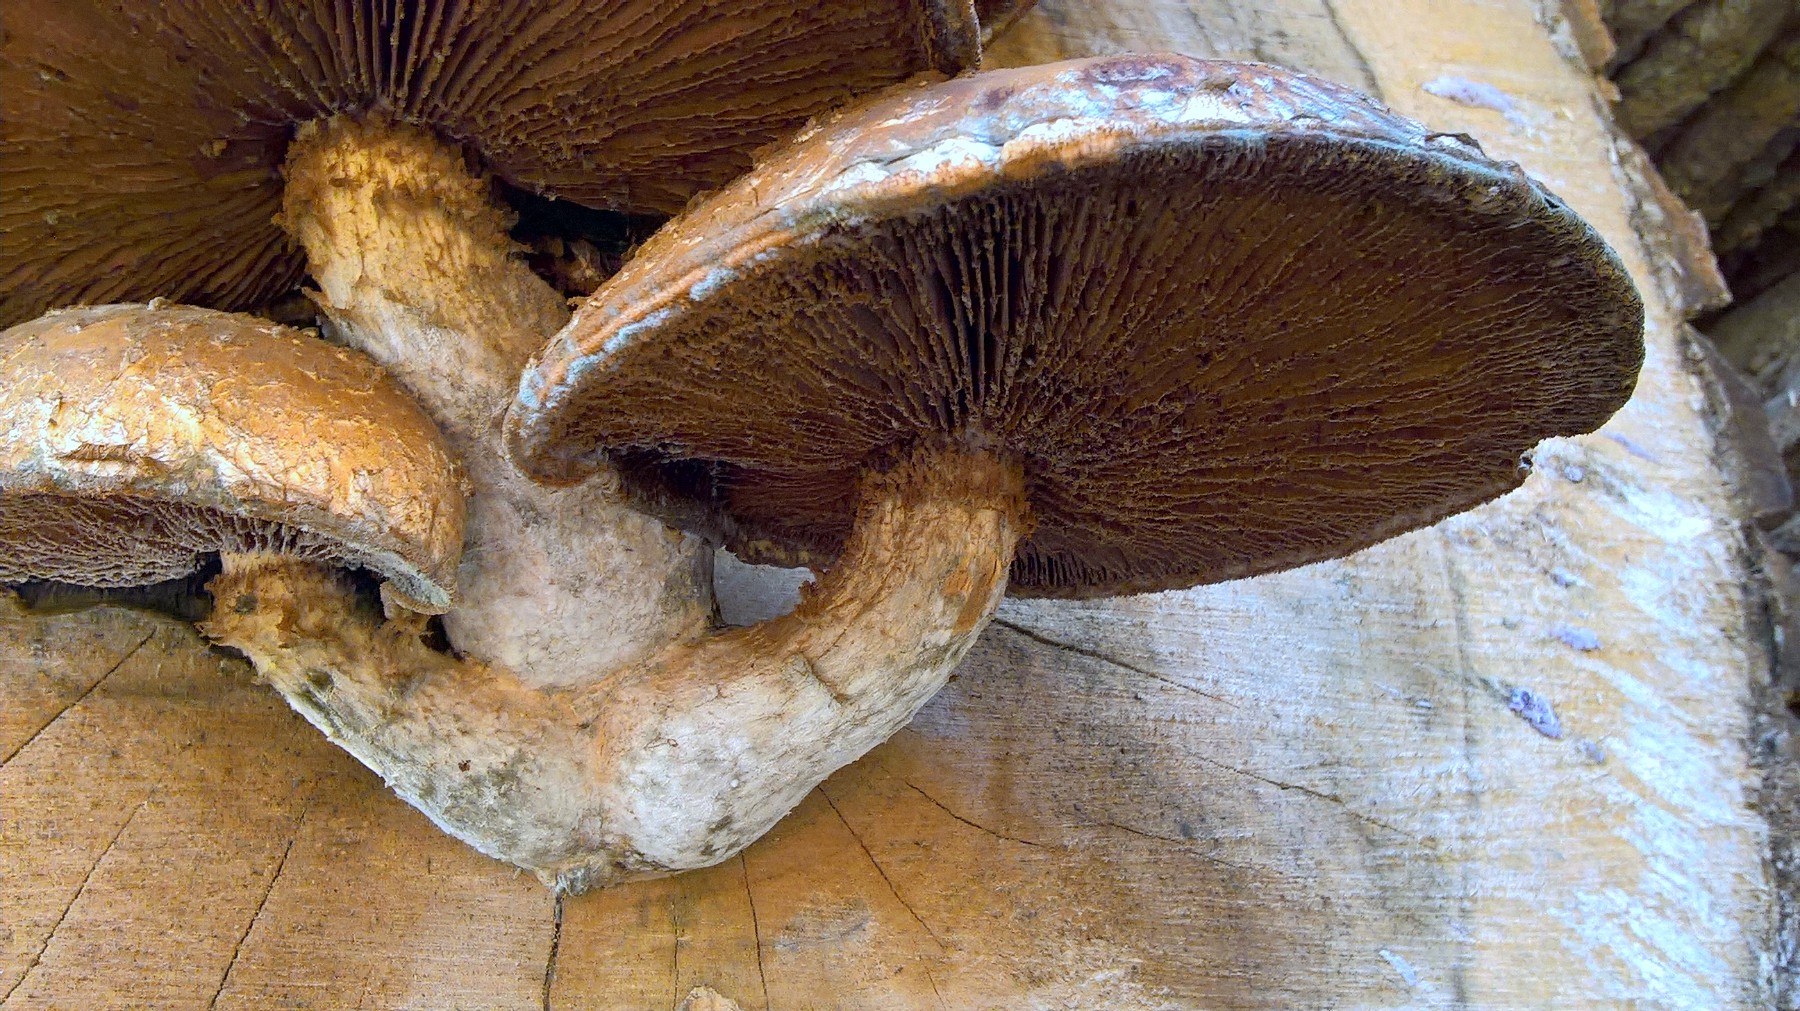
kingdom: Fungi
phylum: Basidiomycota
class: Agaricomycetes
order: Agaricales
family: Strophariaceae
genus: Pholiota
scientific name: Pholiota populnea
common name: poppel-kæmpeskælhat
